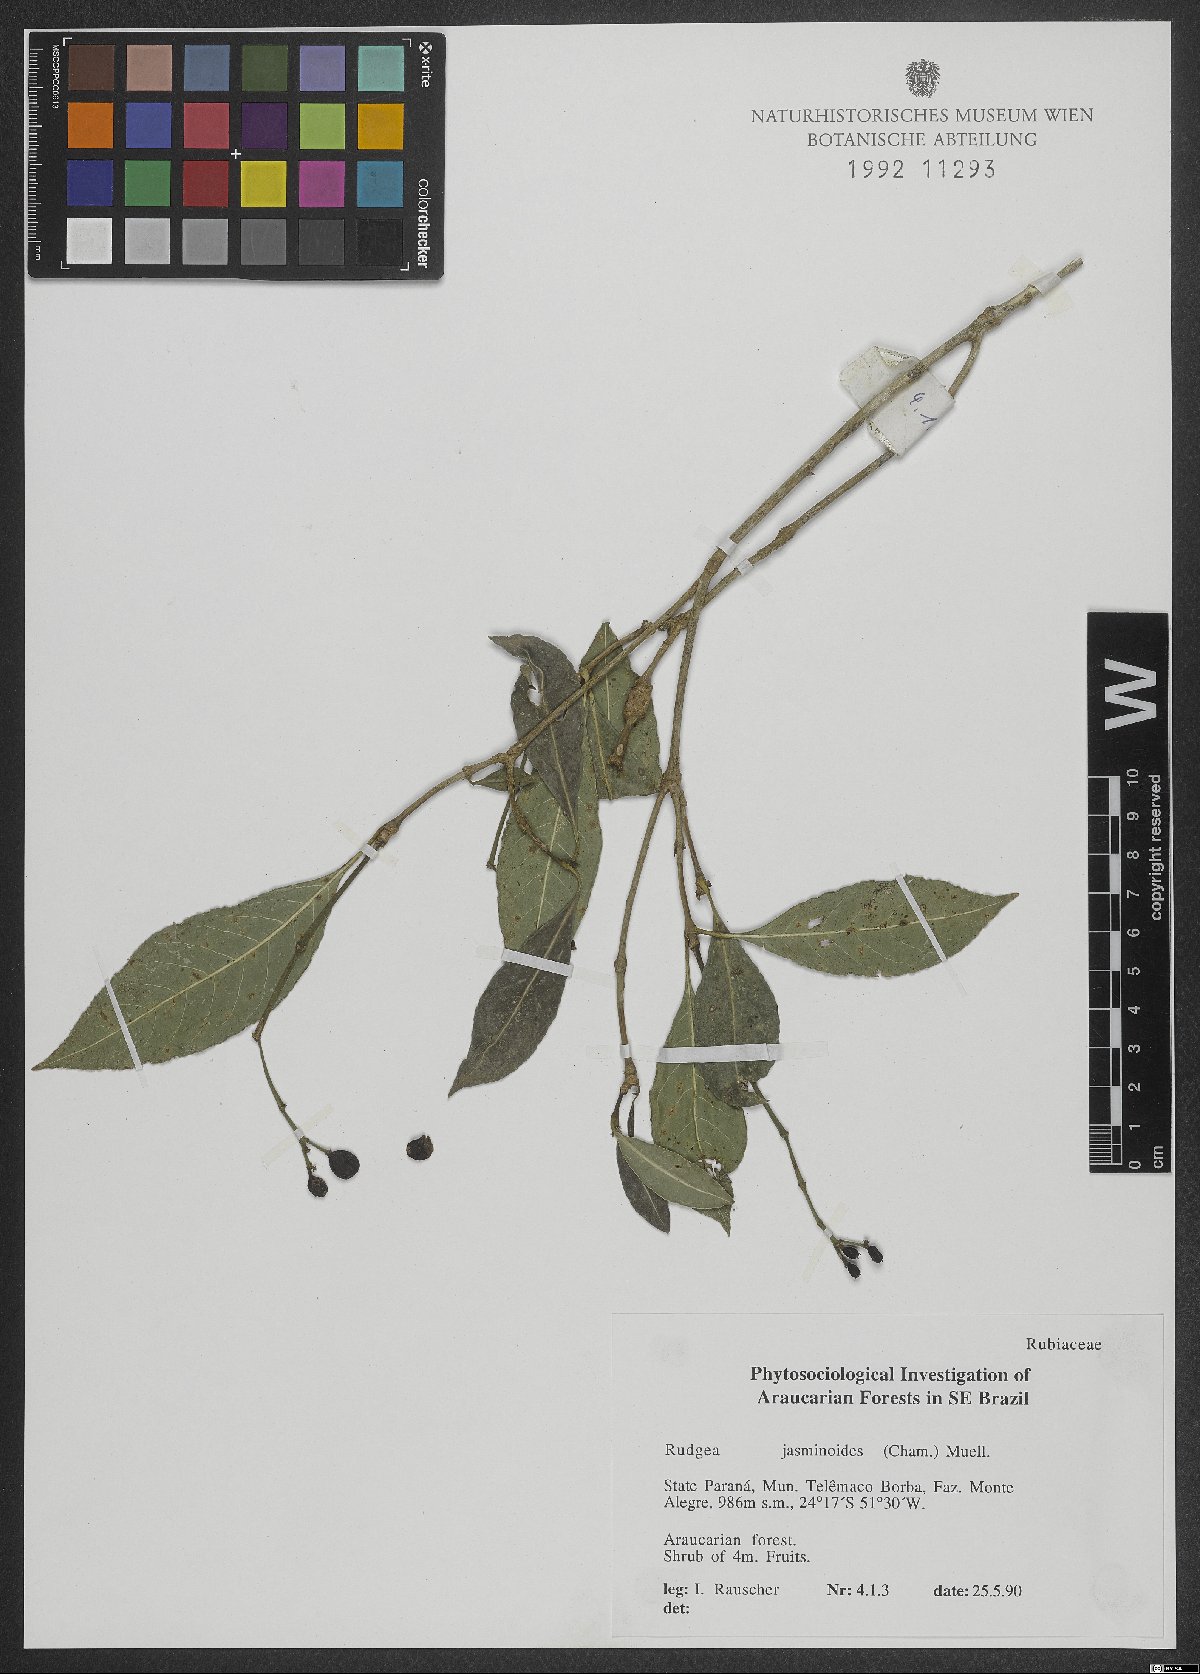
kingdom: Plantae
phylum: Tracheophyta
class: Magnoliopsida
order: Gentianales
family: Rubiaceae
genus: Rudgea
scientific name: Rudgea jasminoides
